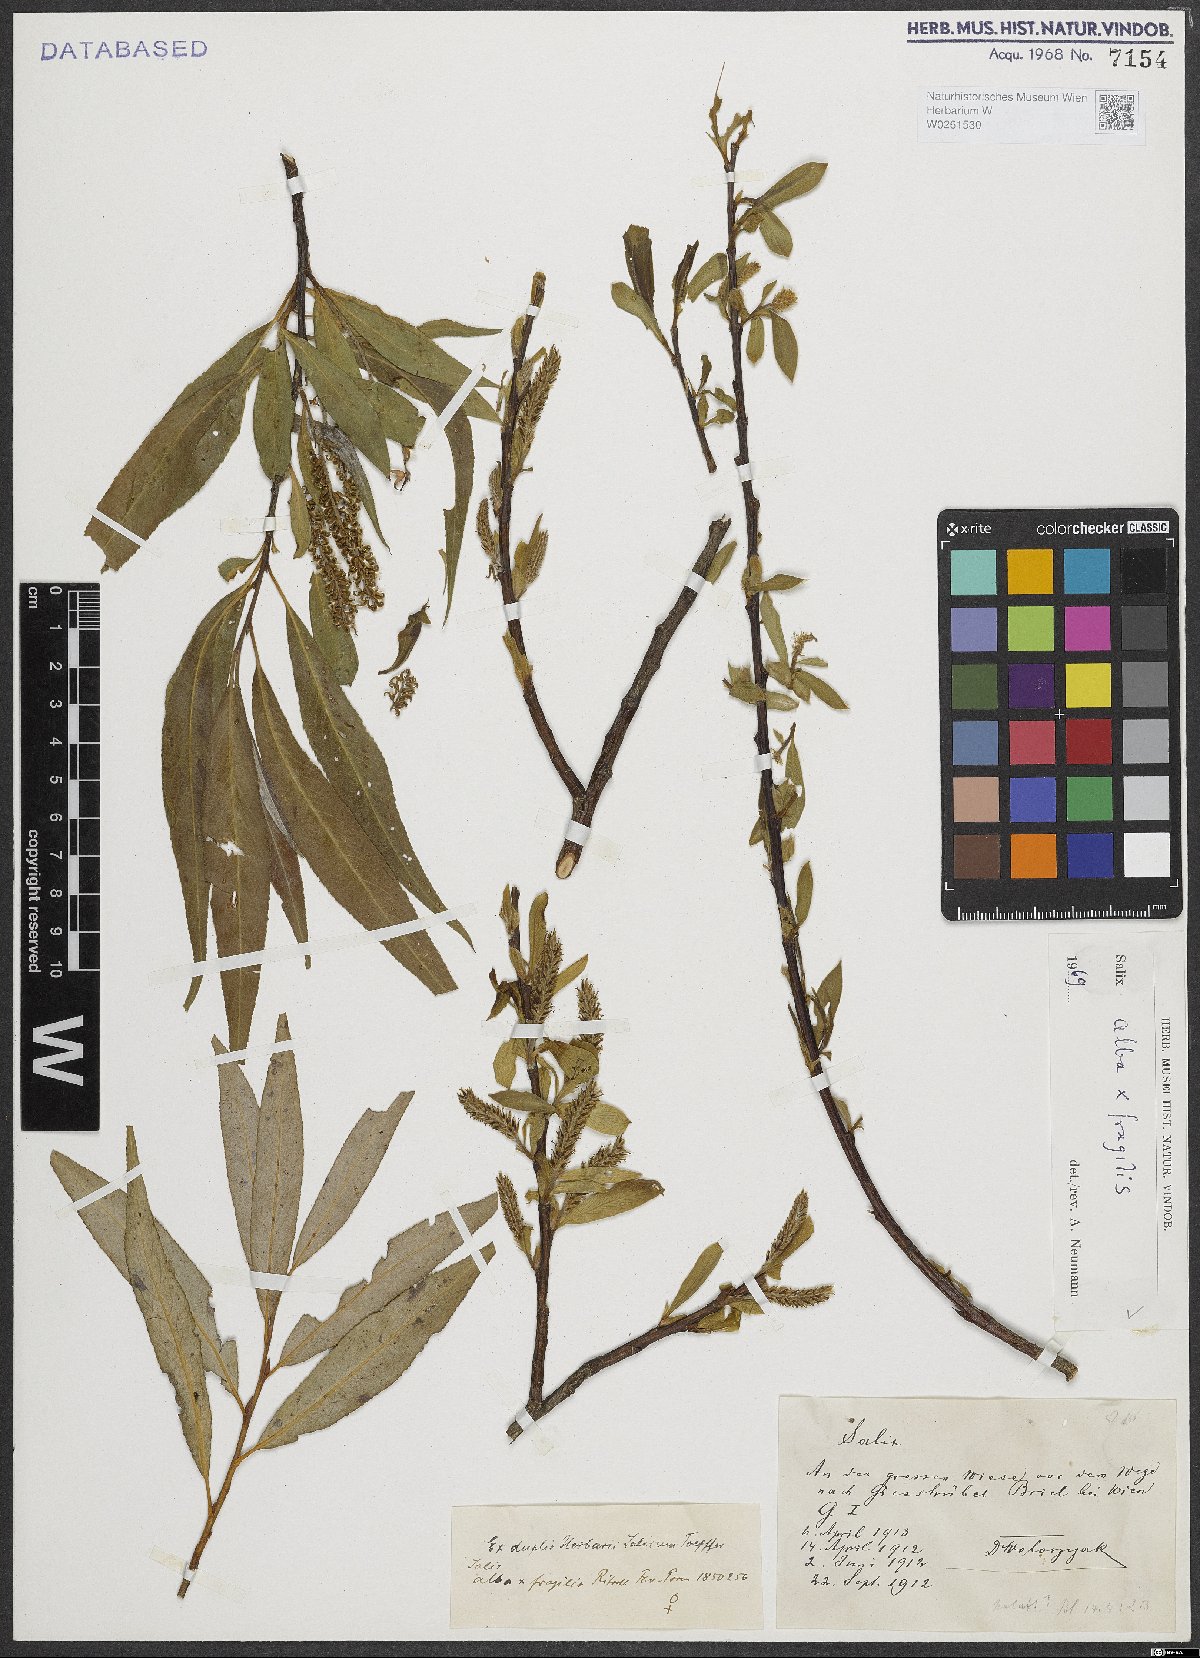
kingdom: Plantae
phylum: Tracheophyta
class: Magnoliopsida
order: Malpighiales
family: Salicaceae
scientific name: Salicaceae
